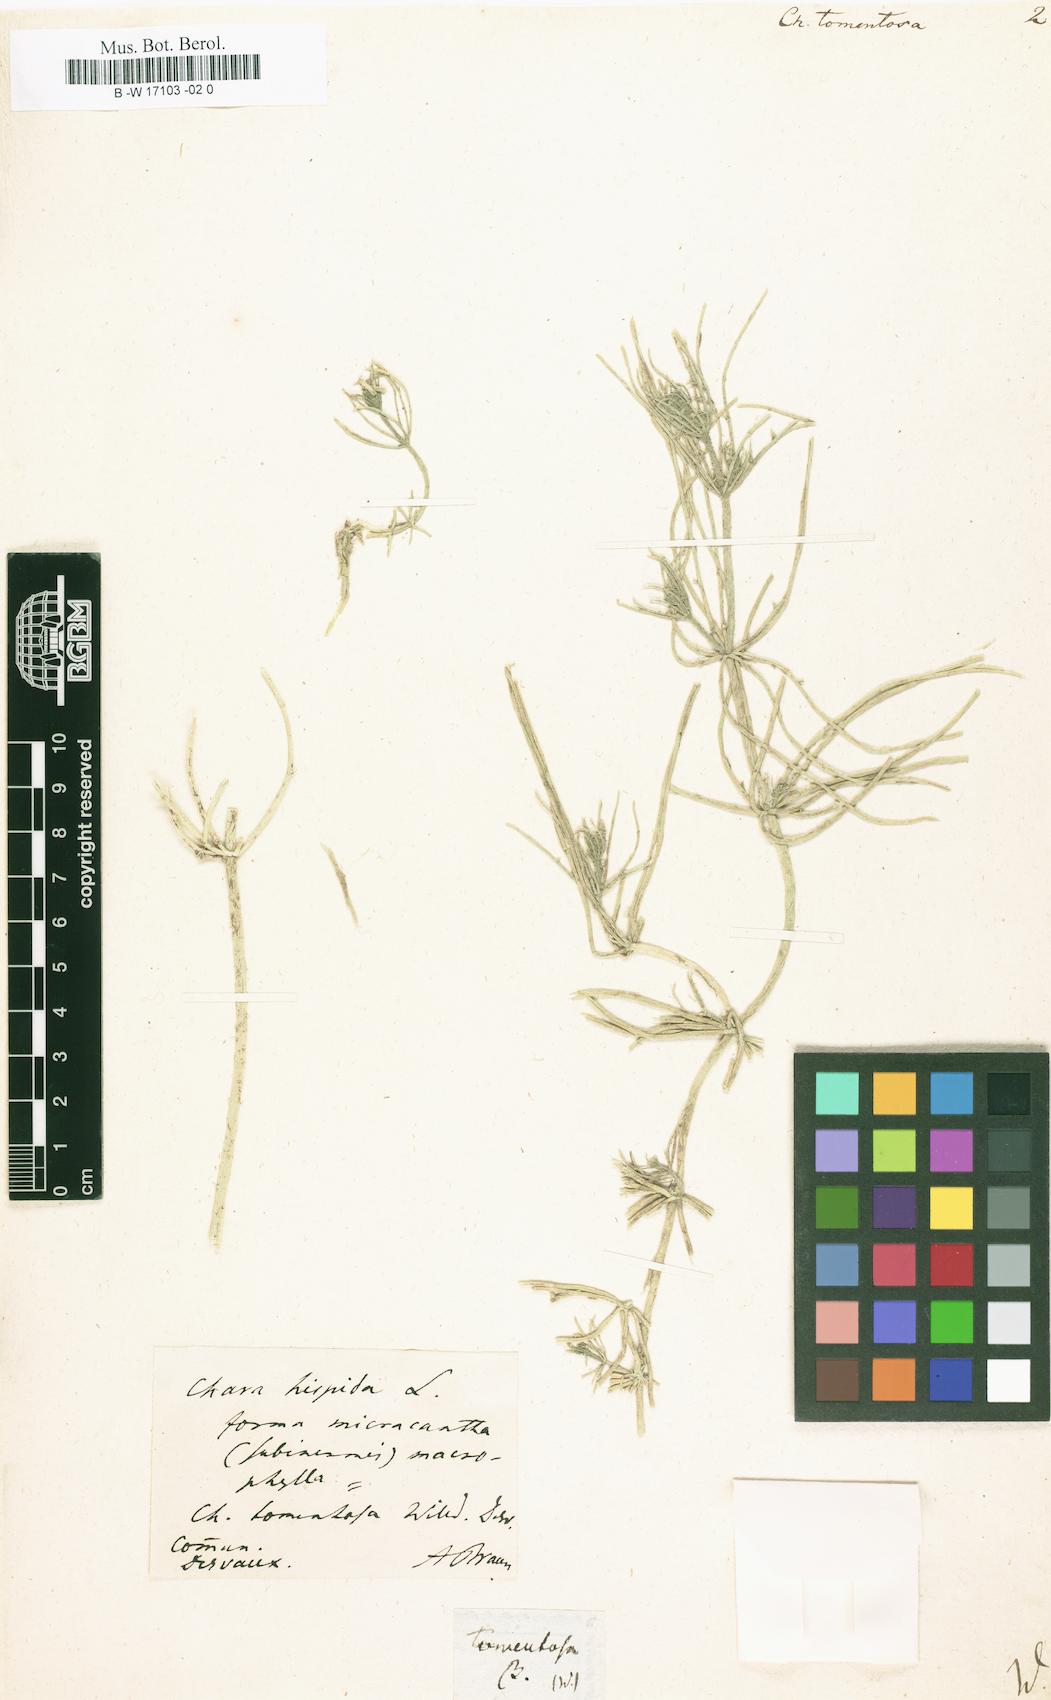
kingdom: Plantae
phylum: Charophyta
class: Charophyceae
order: Charales
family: Characeae
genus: Chara
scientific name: Chara tomentosa
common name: Coral stonewort
